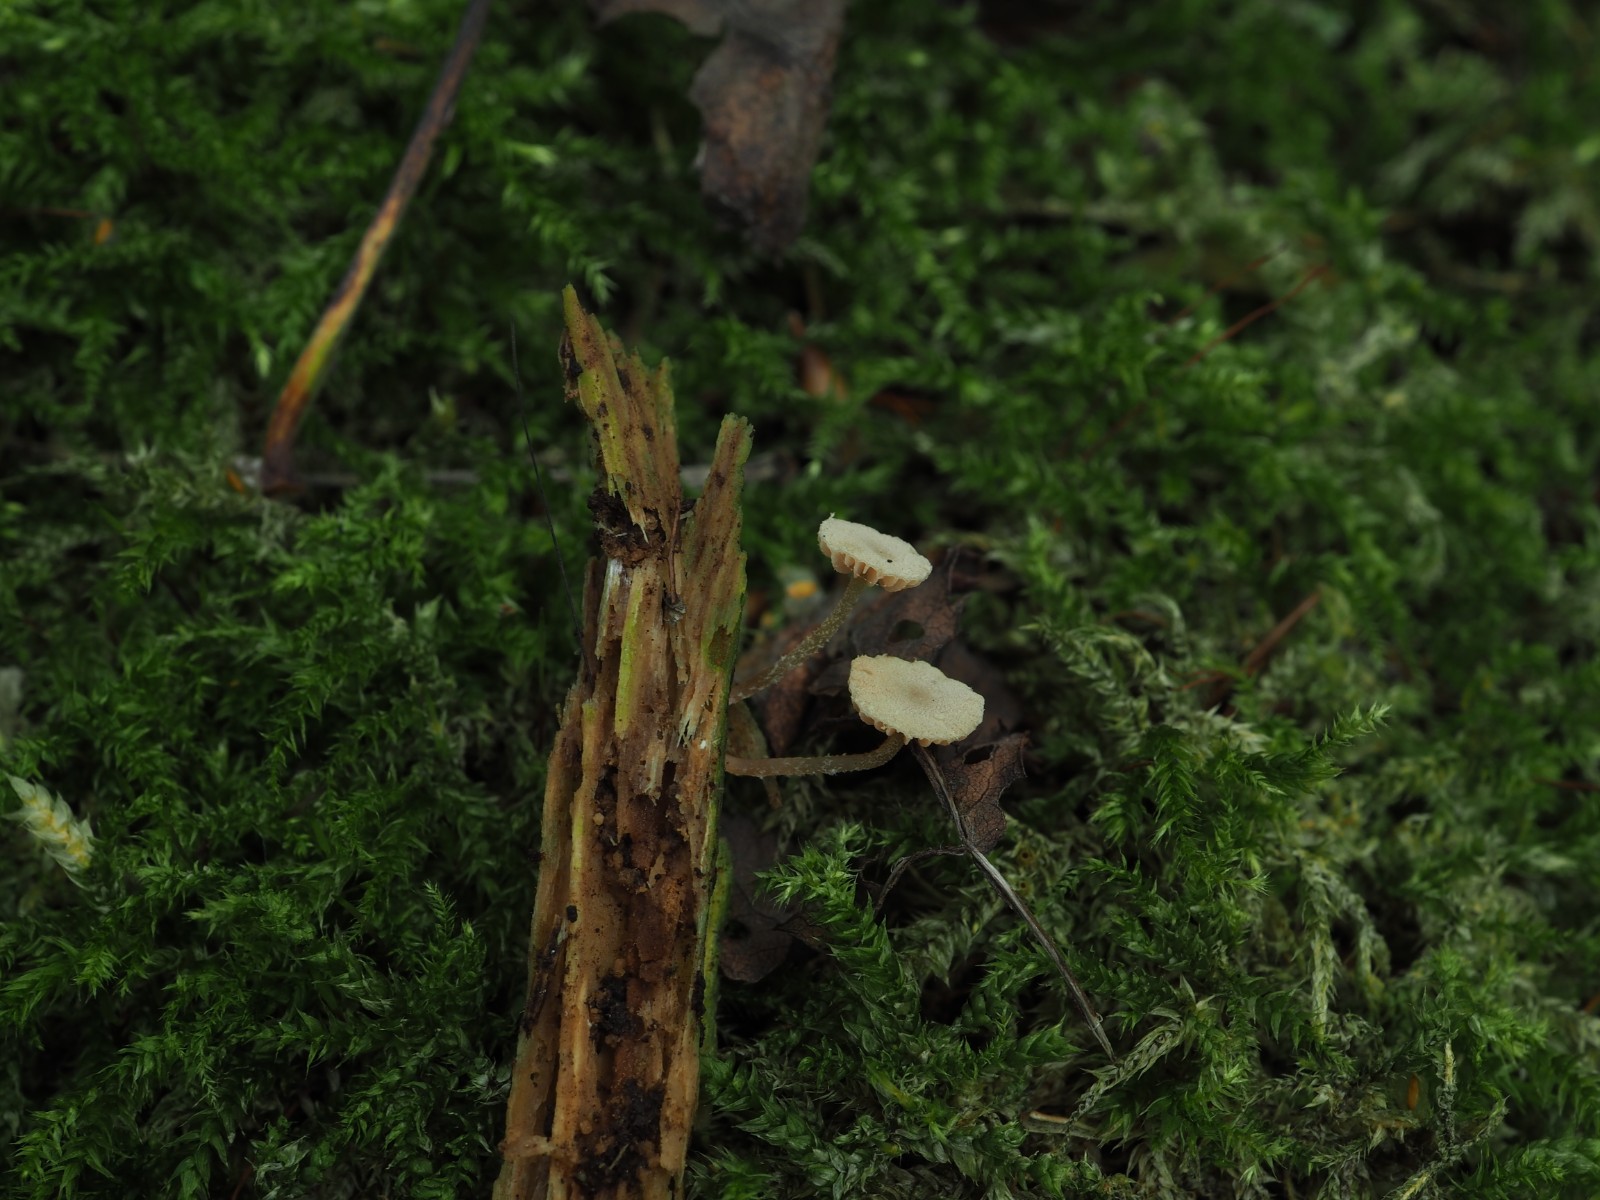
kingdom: Fungi
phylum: Basidiomycota
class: Agaricomycetes
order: Agaricales
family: Tubariaceae
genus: Flammulaster
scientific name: Flammulaster carpophilus
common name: blegrosa grynskælhat
